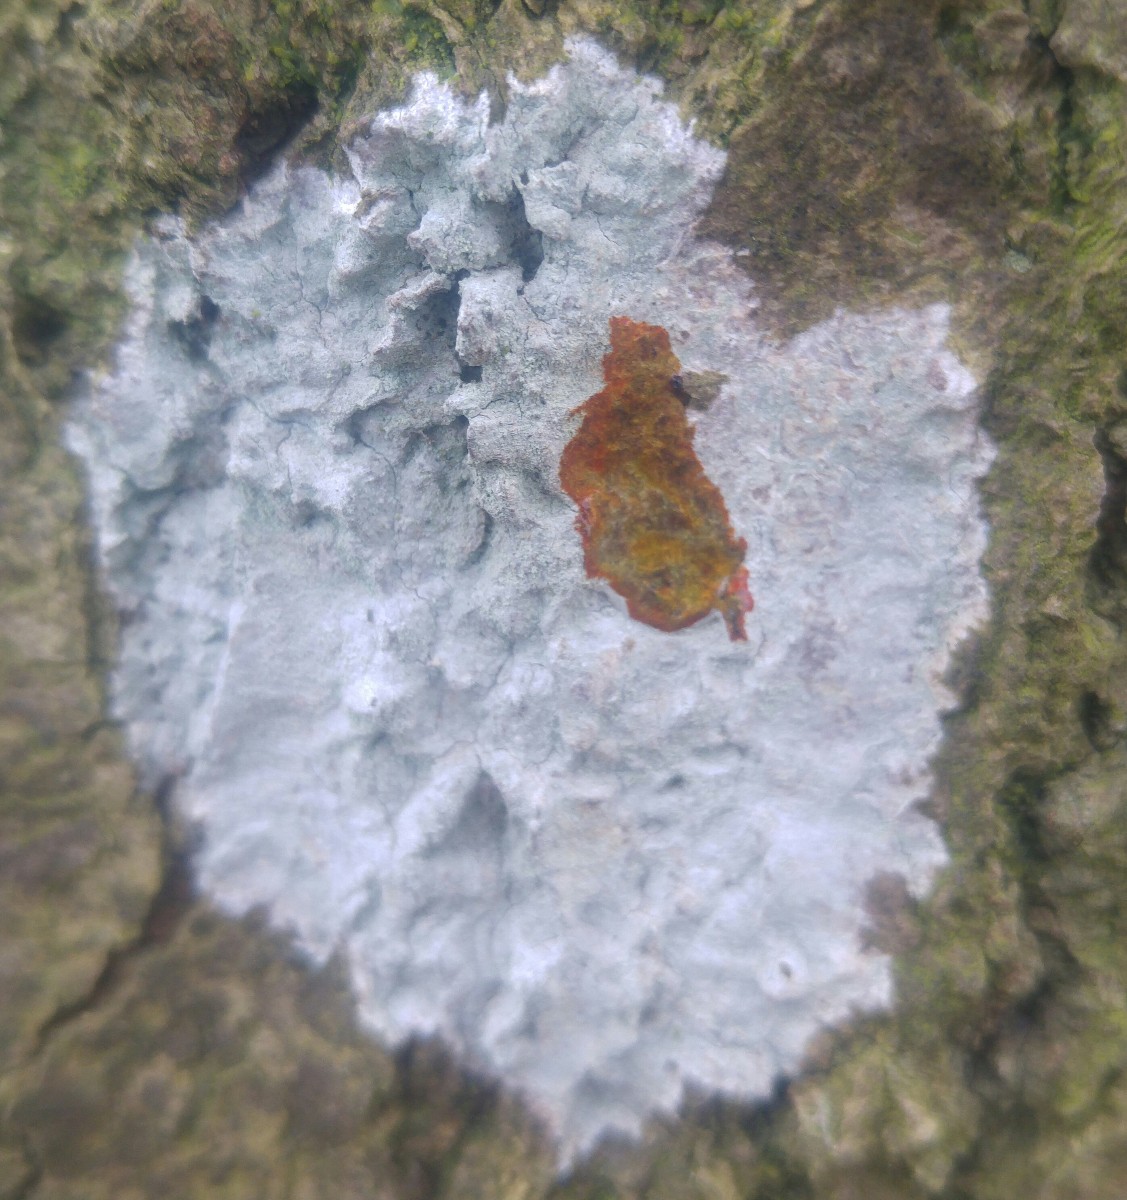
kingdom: Fungi
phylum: Ascomycota
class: Lecanoromycetes
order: Ostropales
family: Phlyctidaceae
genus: Phlyctis
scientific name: Phlyctis argena
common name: almindelig sølvlav
